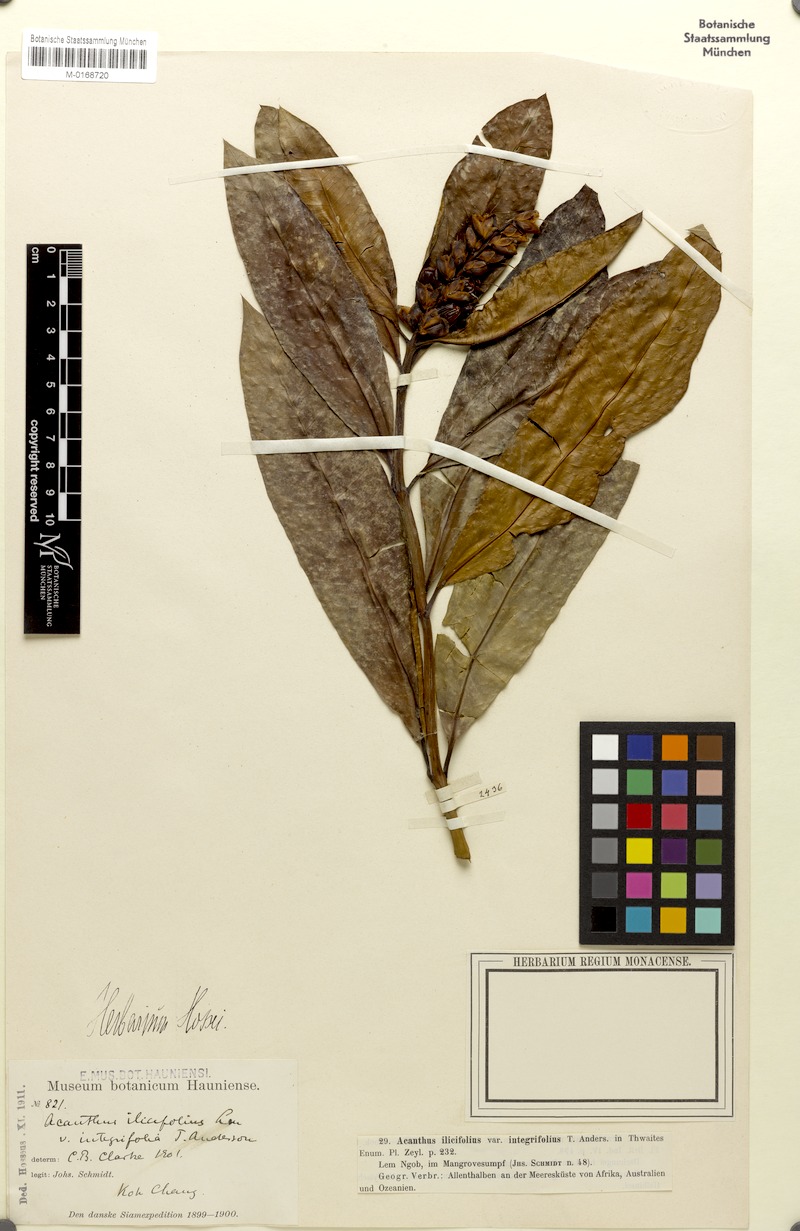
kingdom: Plantae
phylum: Tracheophyta
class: Magnoliopsida
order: Lamiales
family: Acanthaceae
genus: Acanthus
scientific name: Acanthus ilicifolius
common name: Holy mangrove
